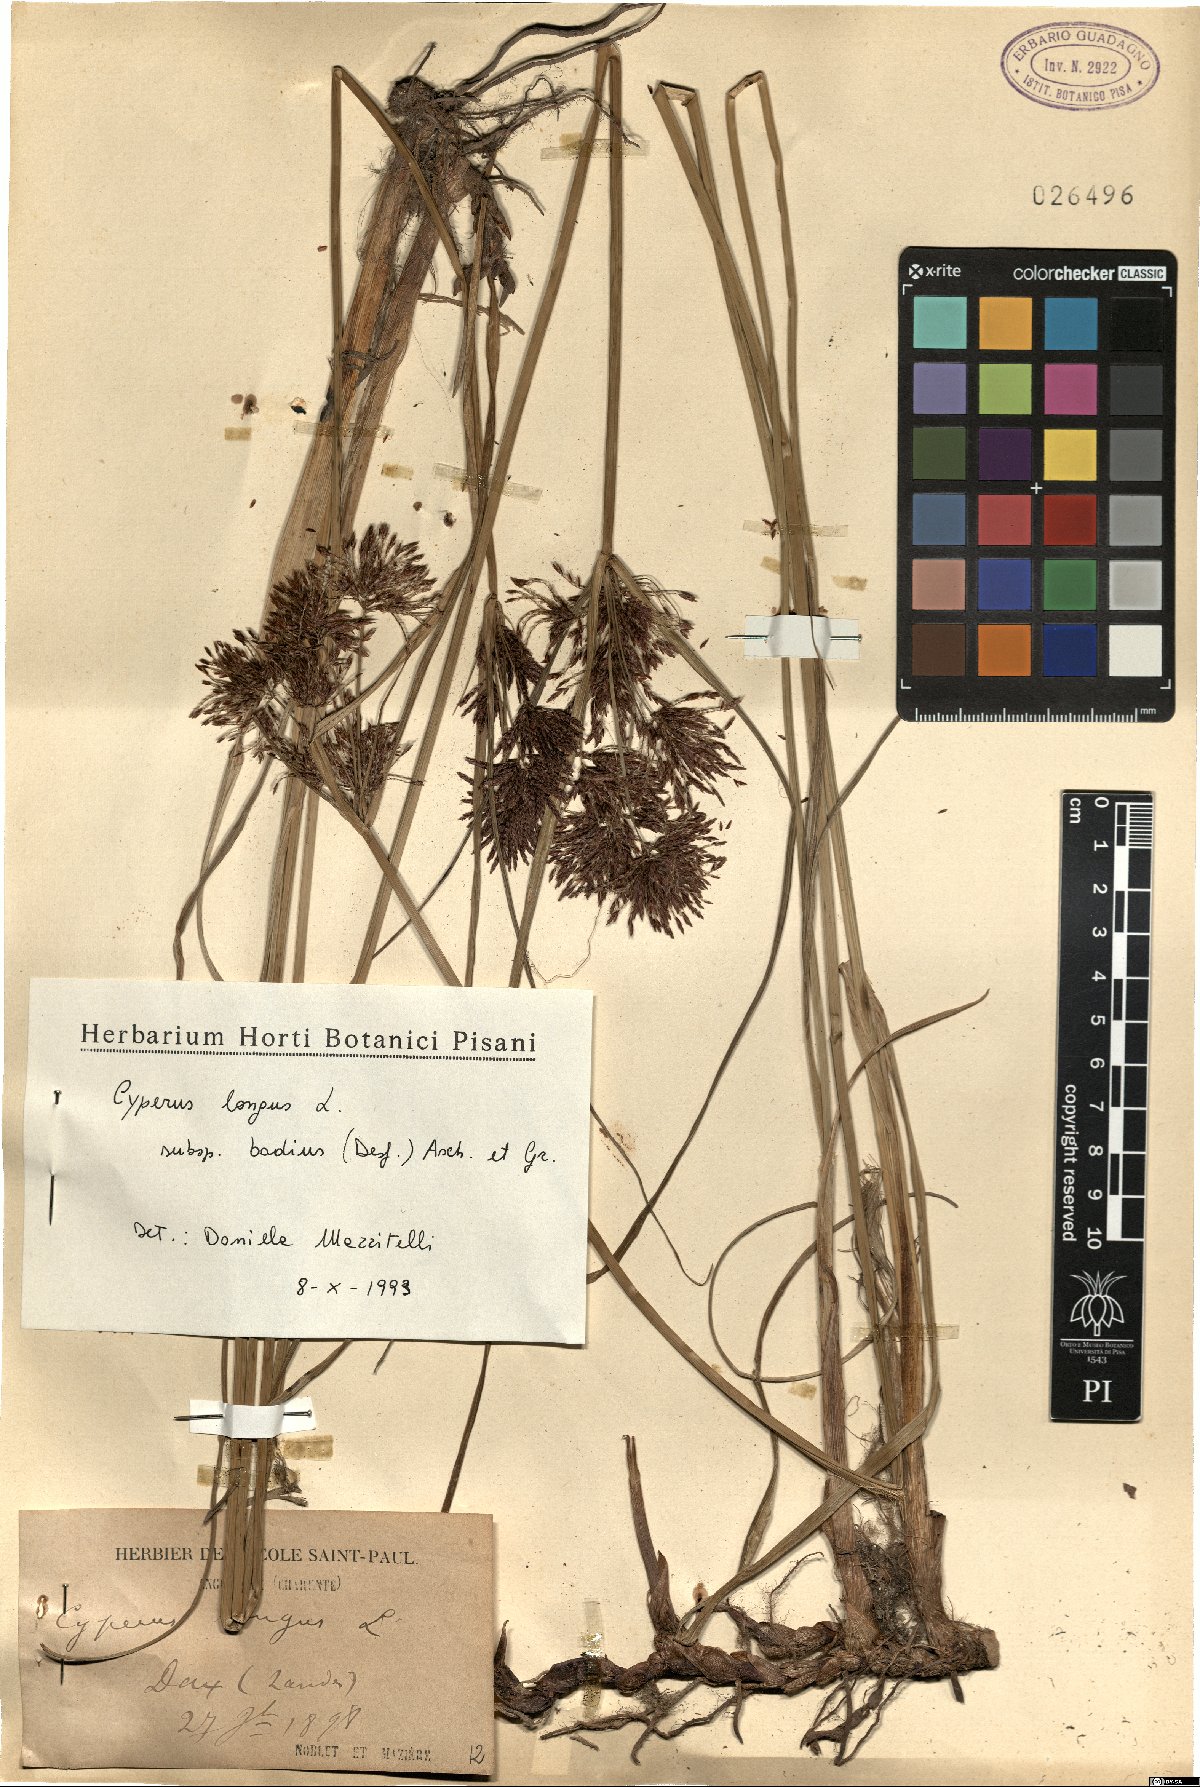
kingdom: Plantae
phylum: Tracheophyta
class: Liliopsida
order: Poales
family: Cyperaceae
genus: Cyperus
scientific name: Cyperus longus
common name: Galingale
